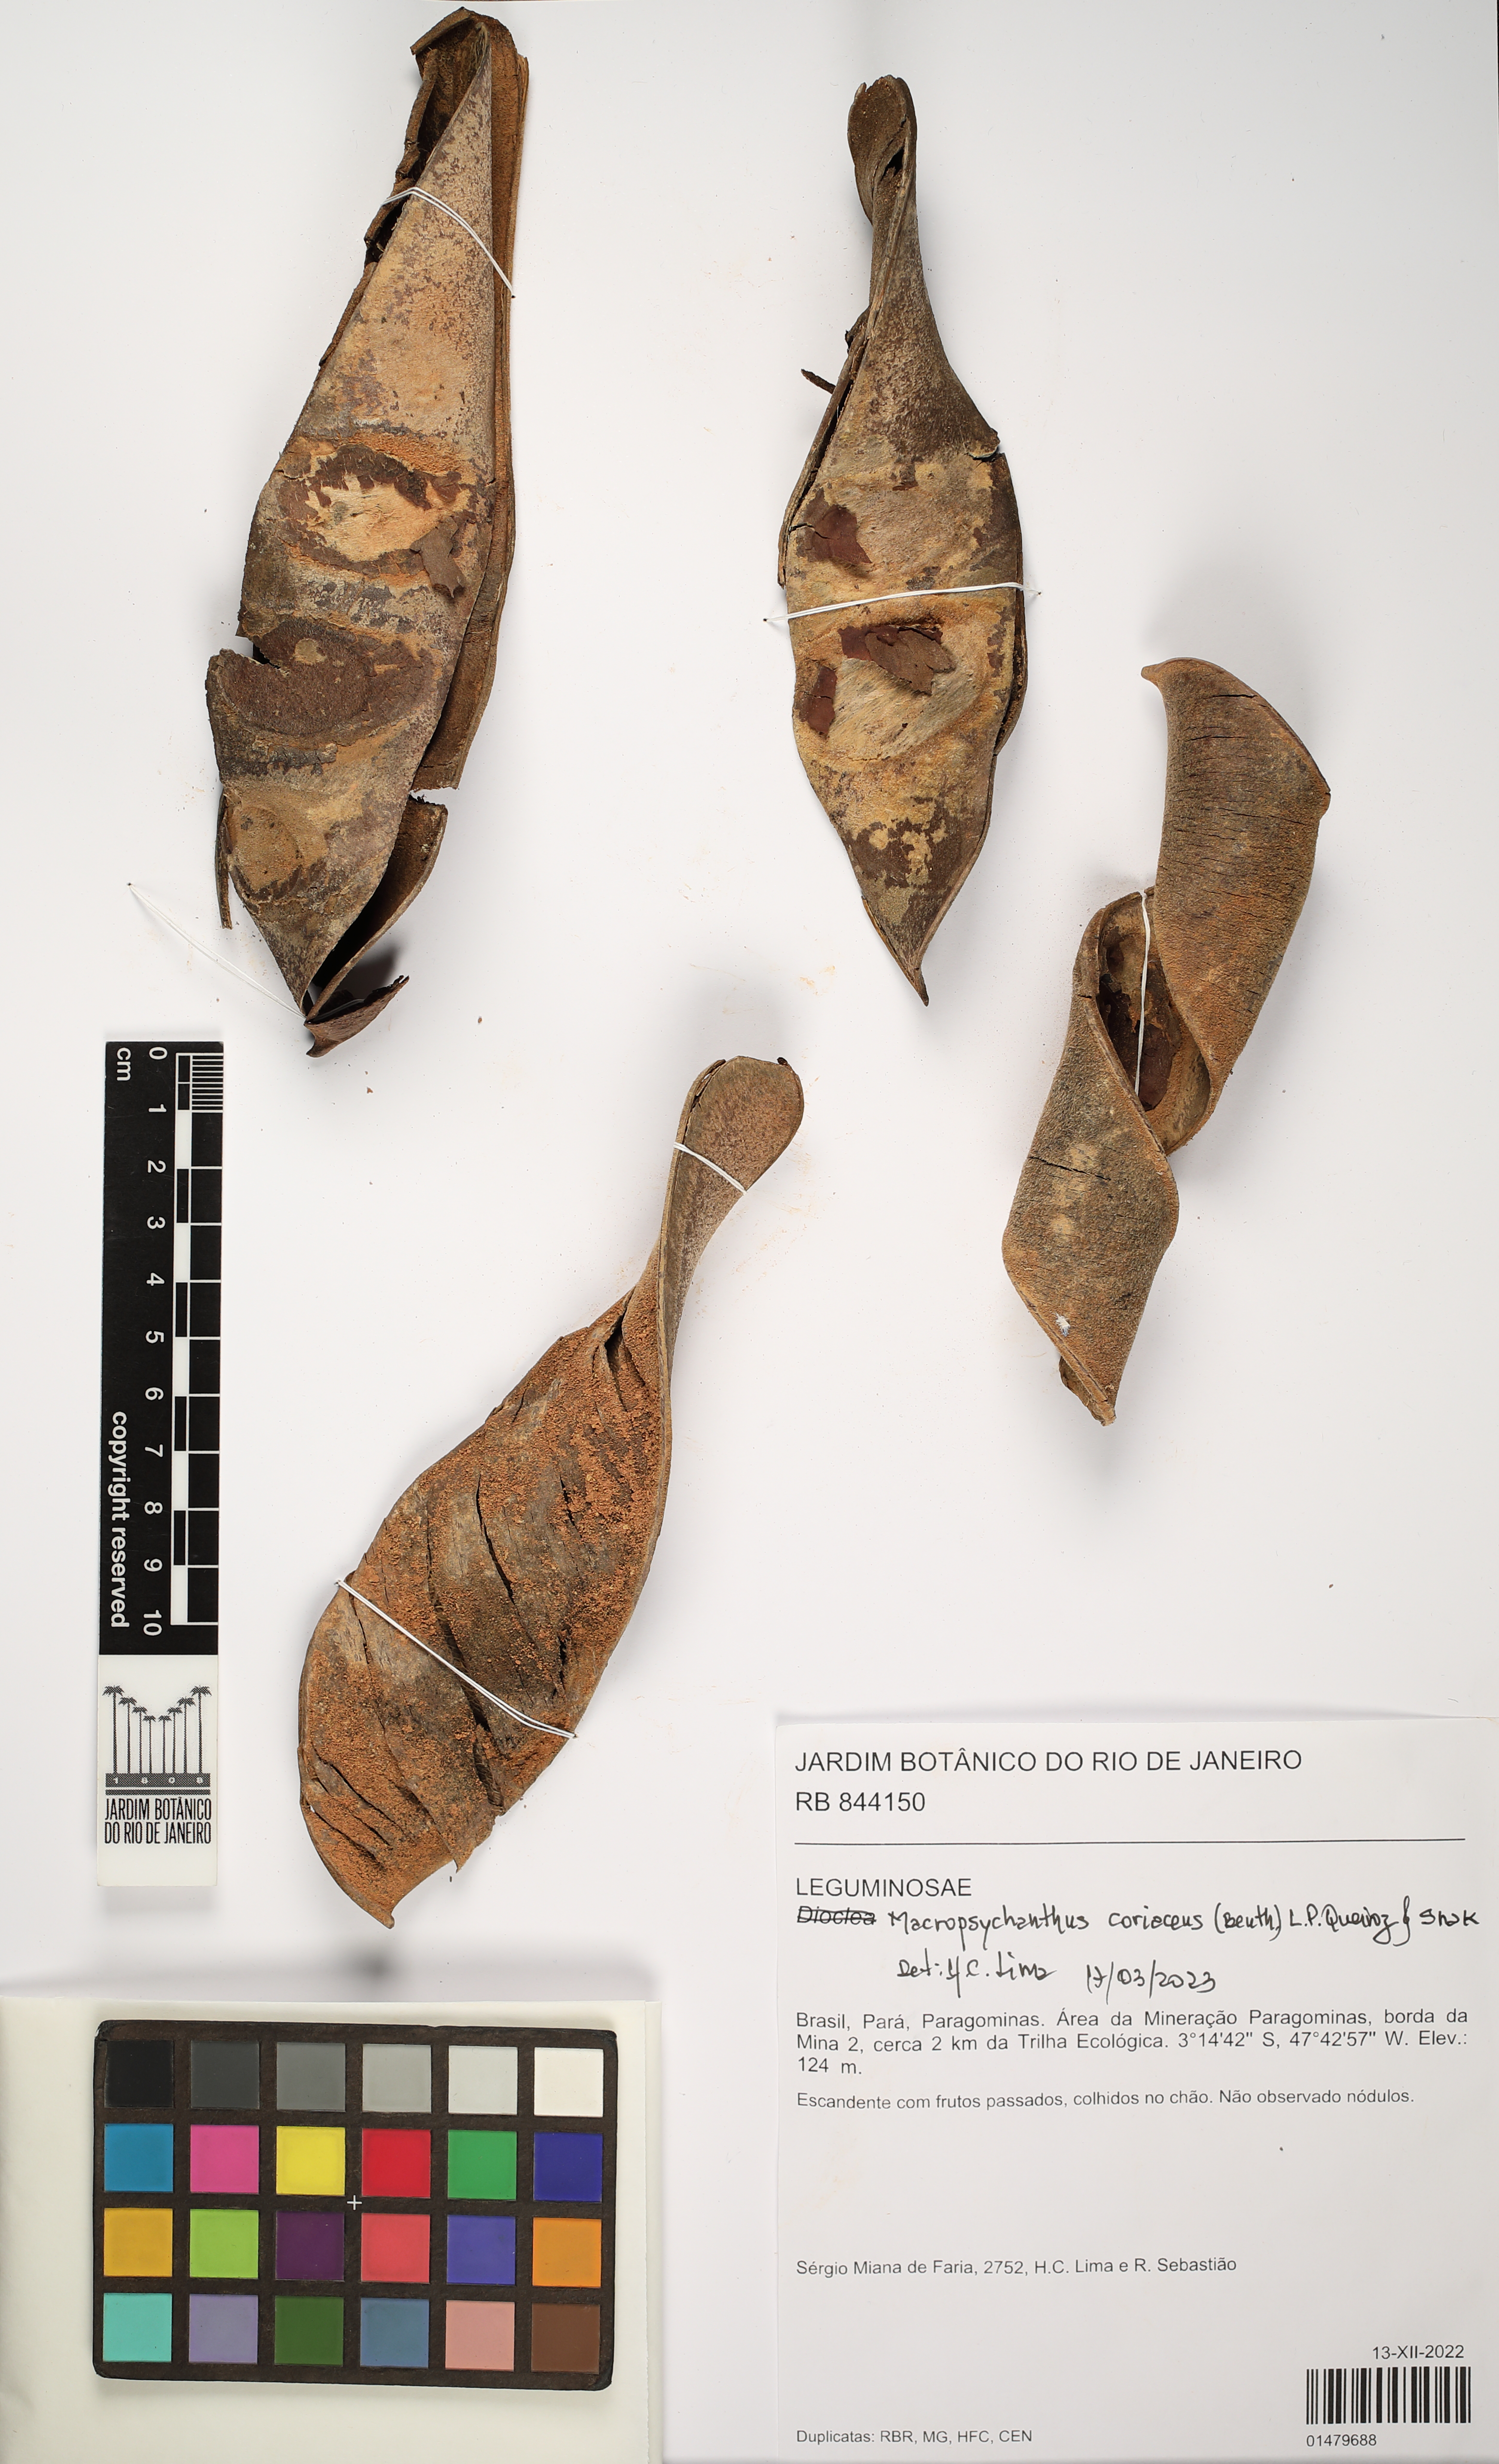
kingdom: Plantae
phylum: Tracheophyta
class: Magnoliopsida
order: Fabales
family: Fabaceae
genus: Macropsychanthus
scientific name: Macropsychanthus coriaceus
